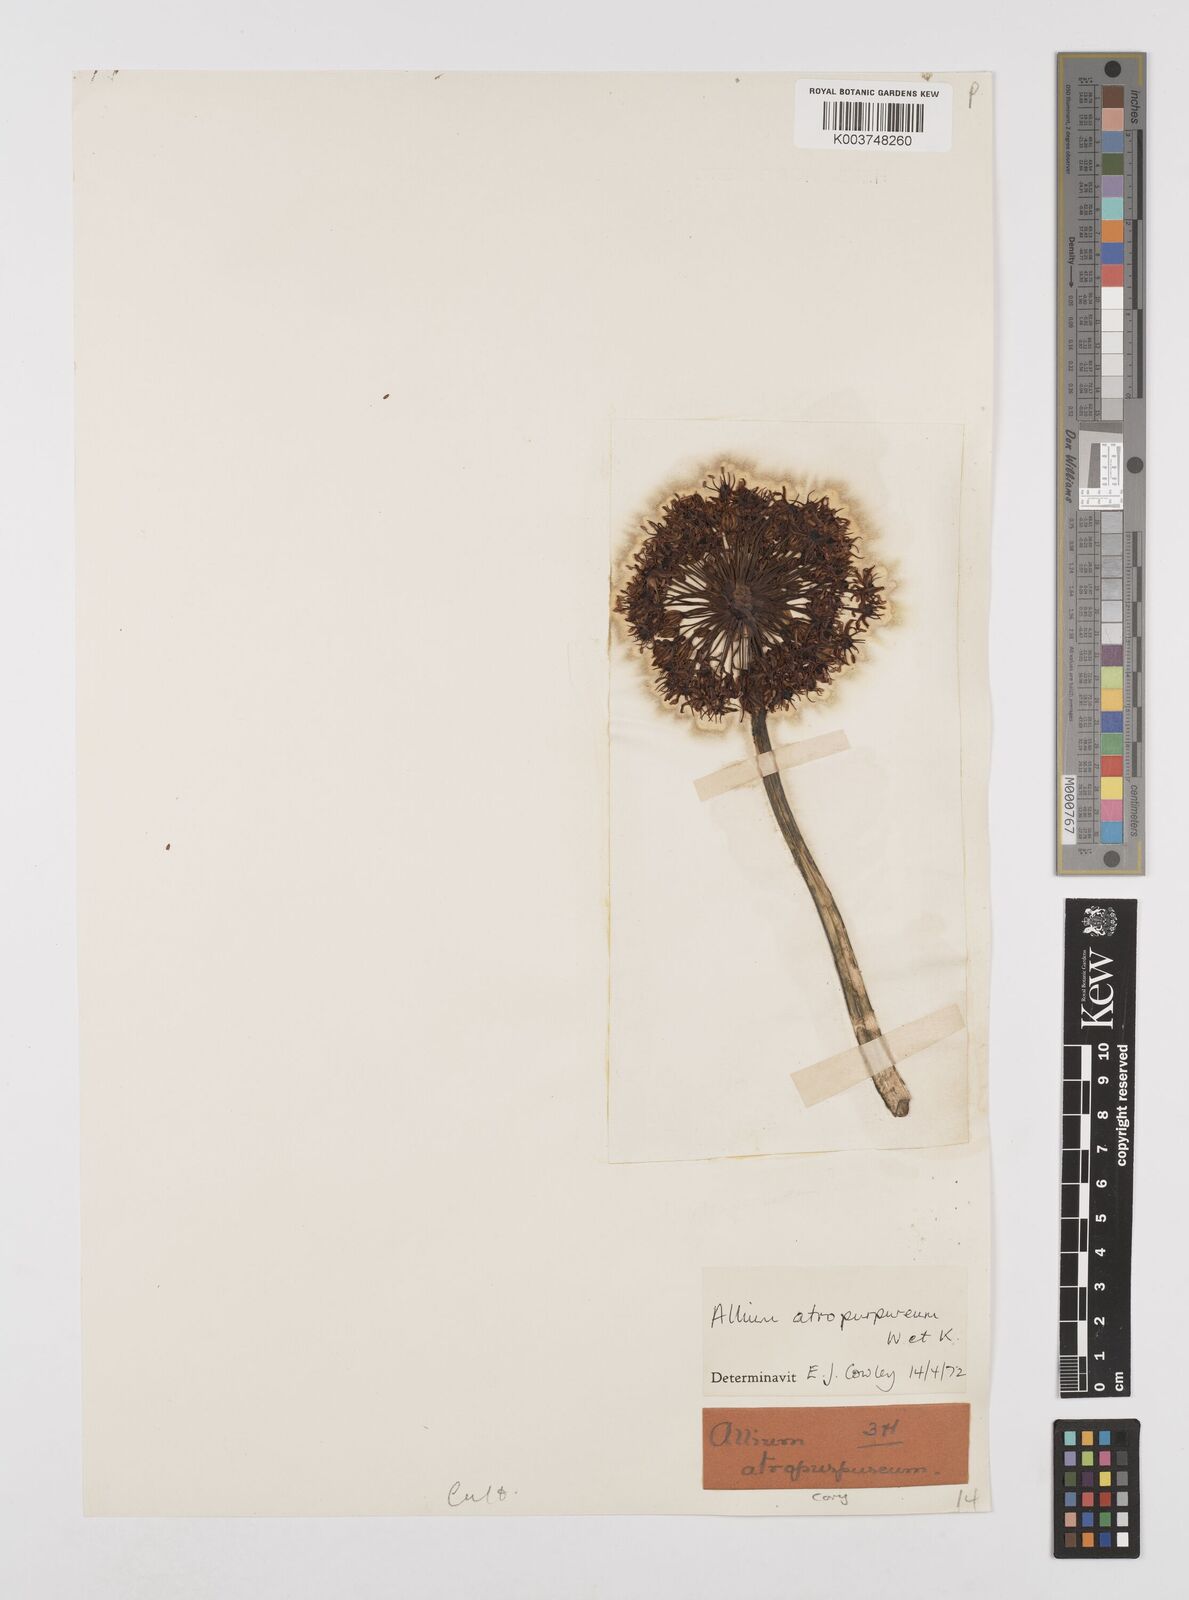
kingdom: Plantae
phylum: Tracheophyta
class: Liliopsida
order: Asparagales
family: Amaryllidaceae
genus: Allium
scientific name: Allium atropurpureum
